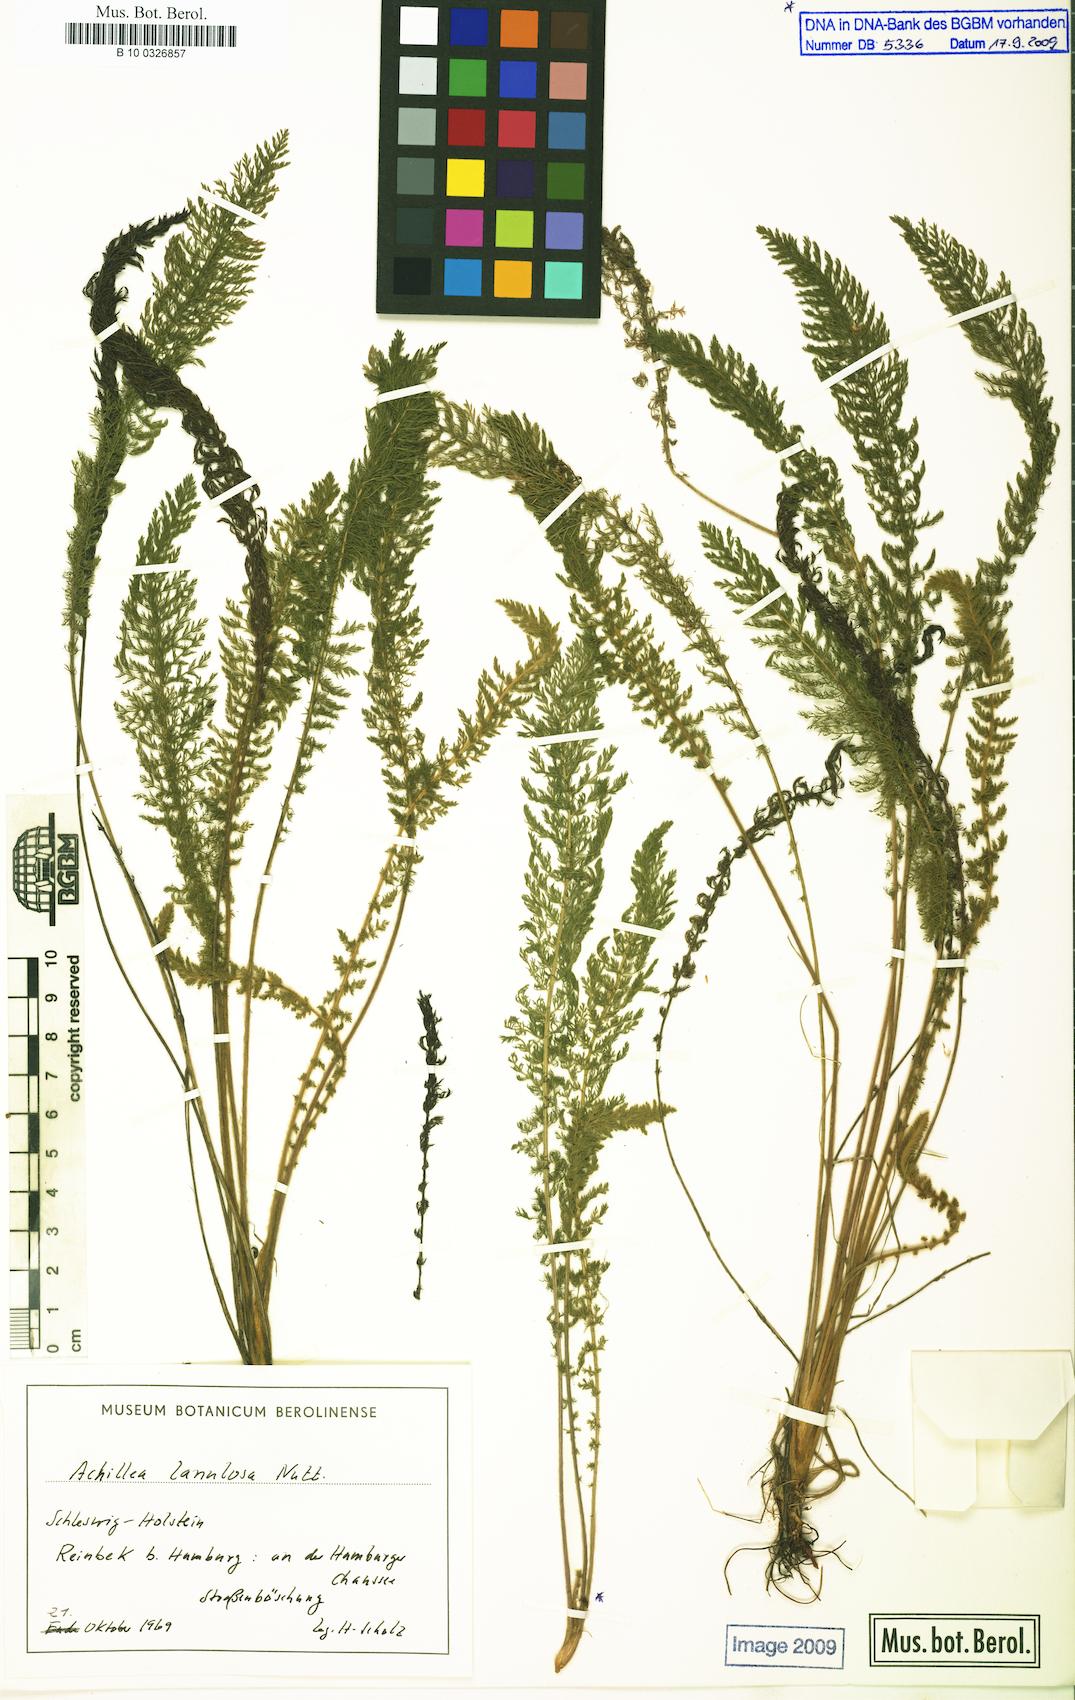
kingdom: Plantae
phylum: Tracheophyta
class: Magnoliopsida
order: Asterales
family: Asteraceae
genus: Achillea
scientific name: Achillea millefolium
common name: Yarrow
